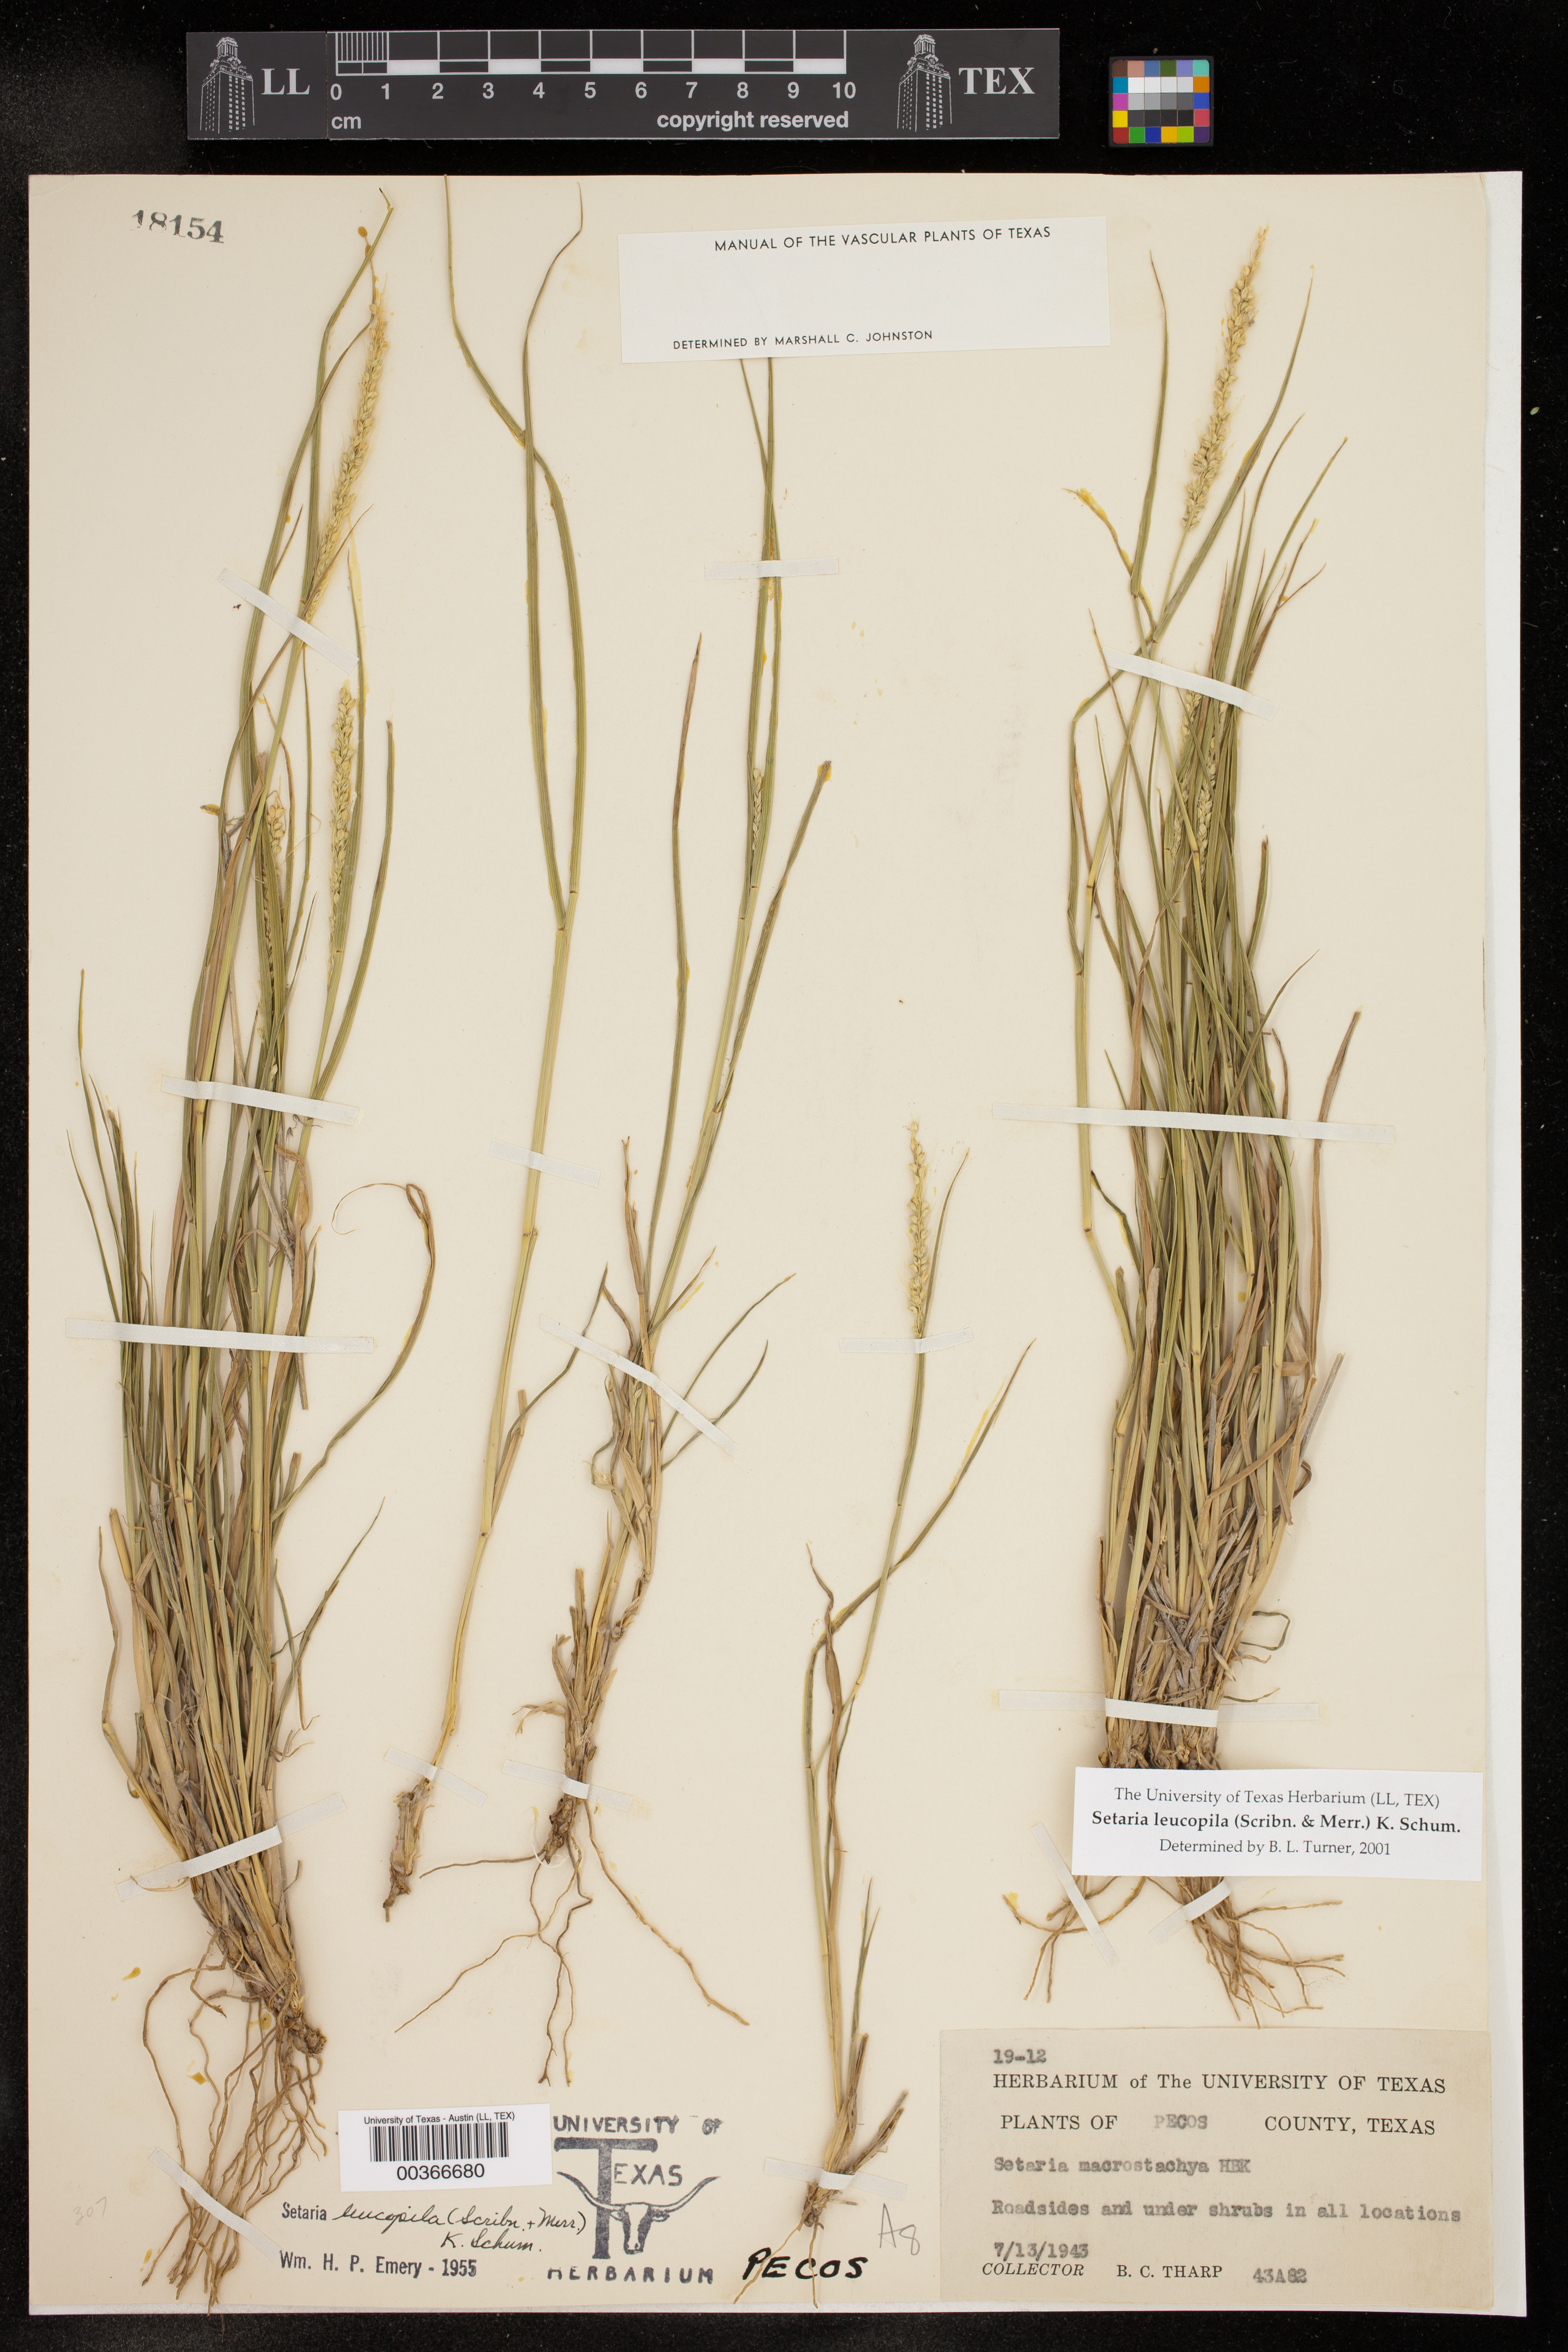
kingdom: Plantae
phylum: Tracheophyta
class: Liliopsida
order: Poales
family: Poaceae
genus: Setaria
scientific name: Setaria leucopila
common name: Plains bristle grass
